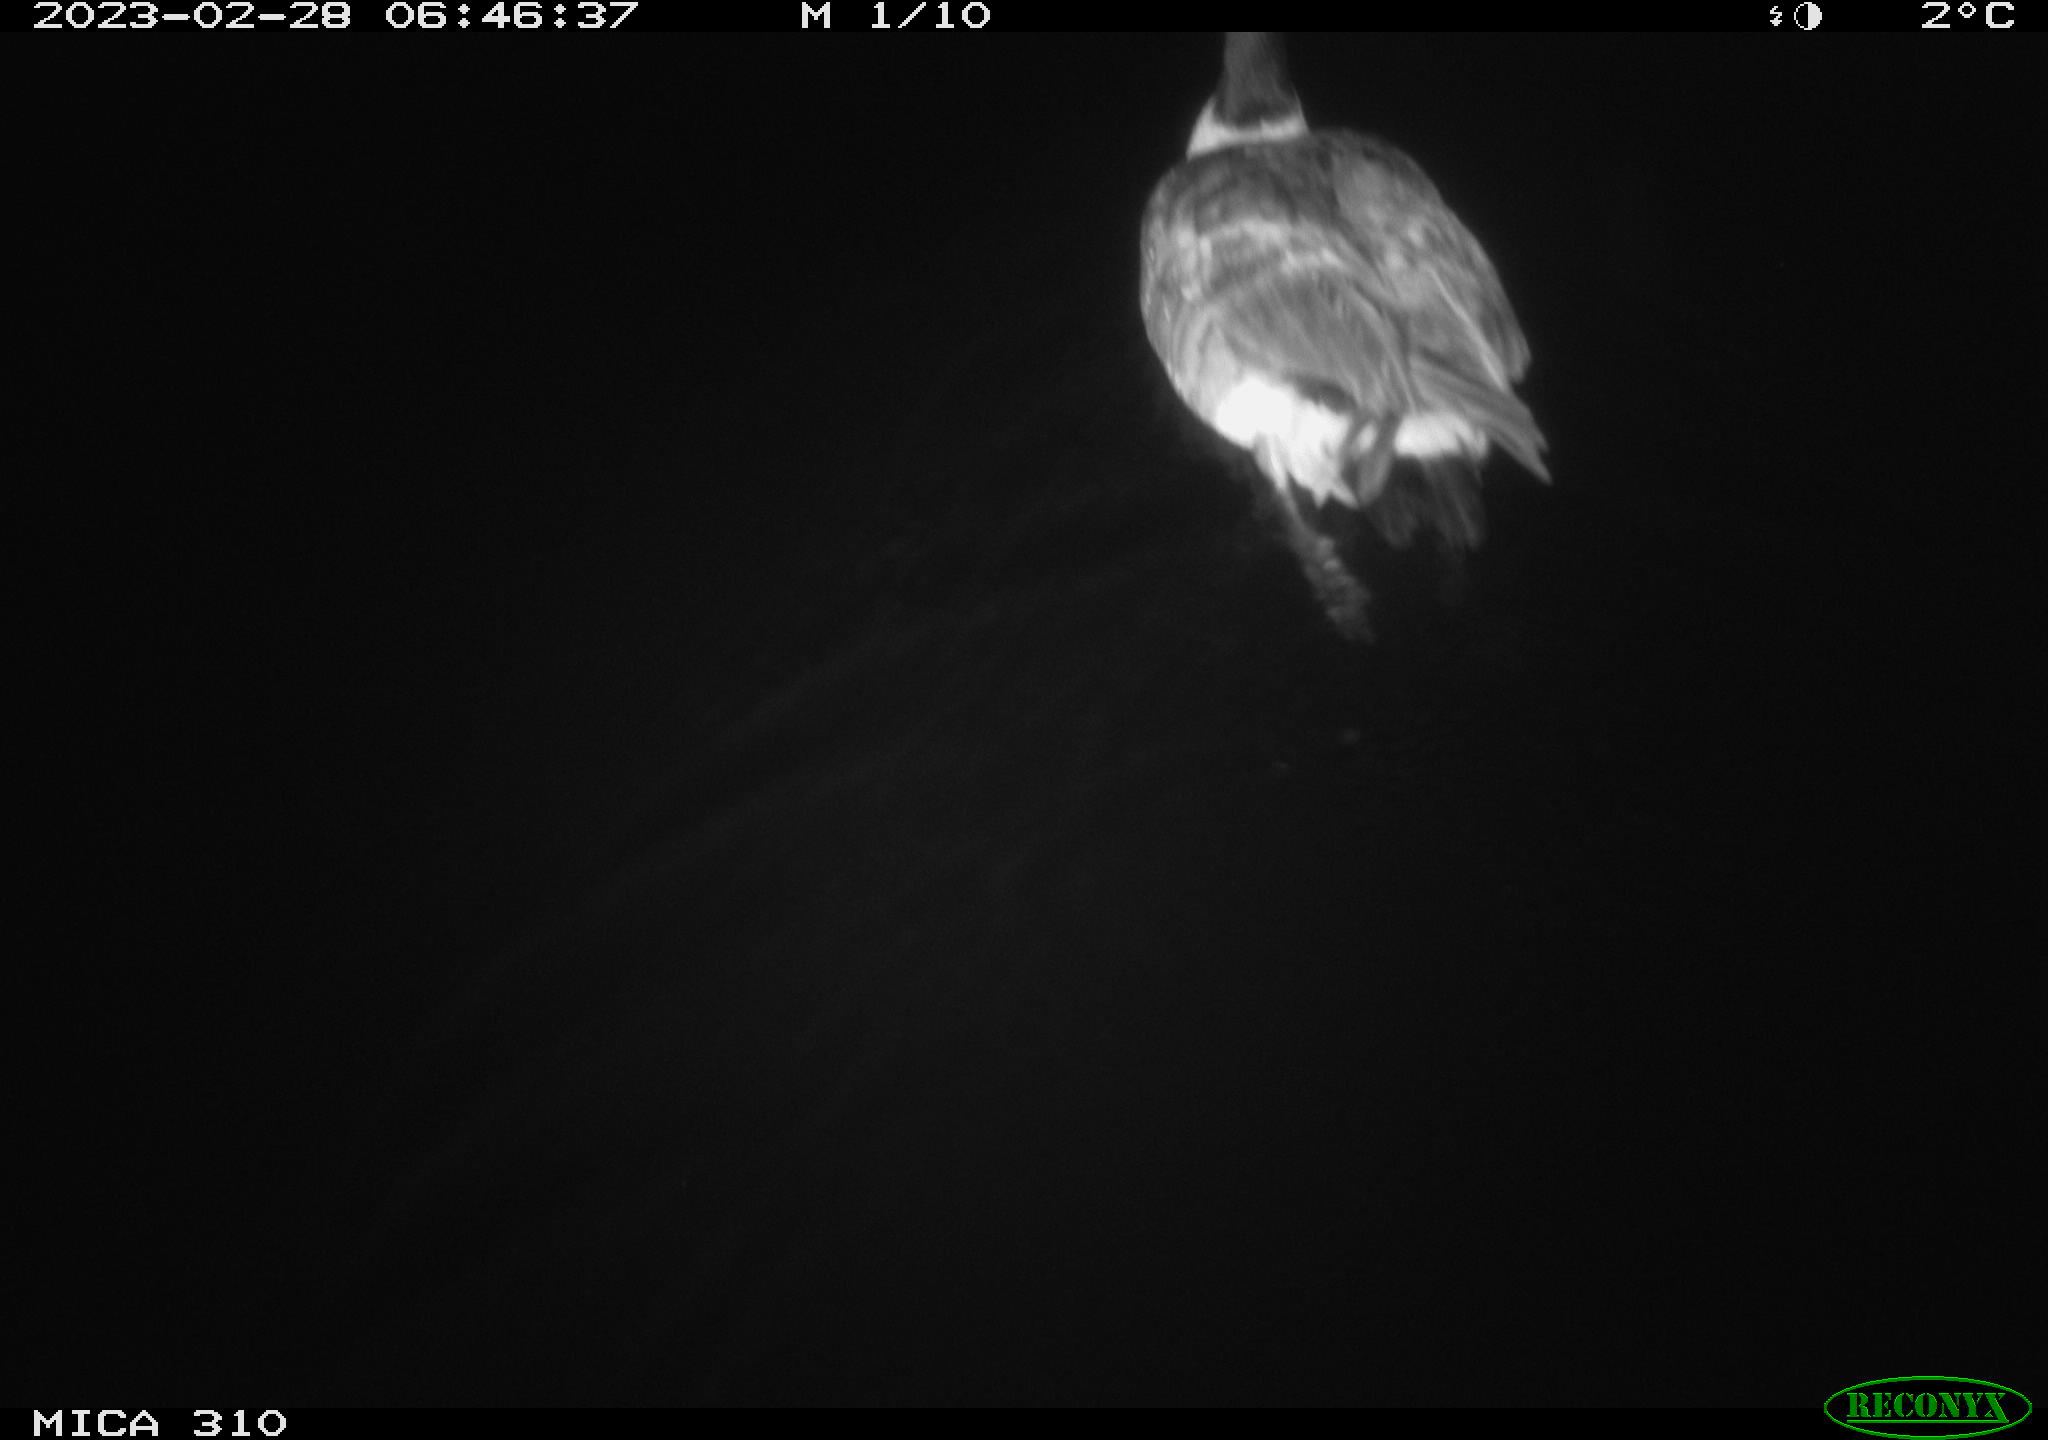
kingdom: Animalia
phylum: Chordata
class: Aves
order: Anseriformes
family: Anatidae
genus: Anas
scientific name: Anas
